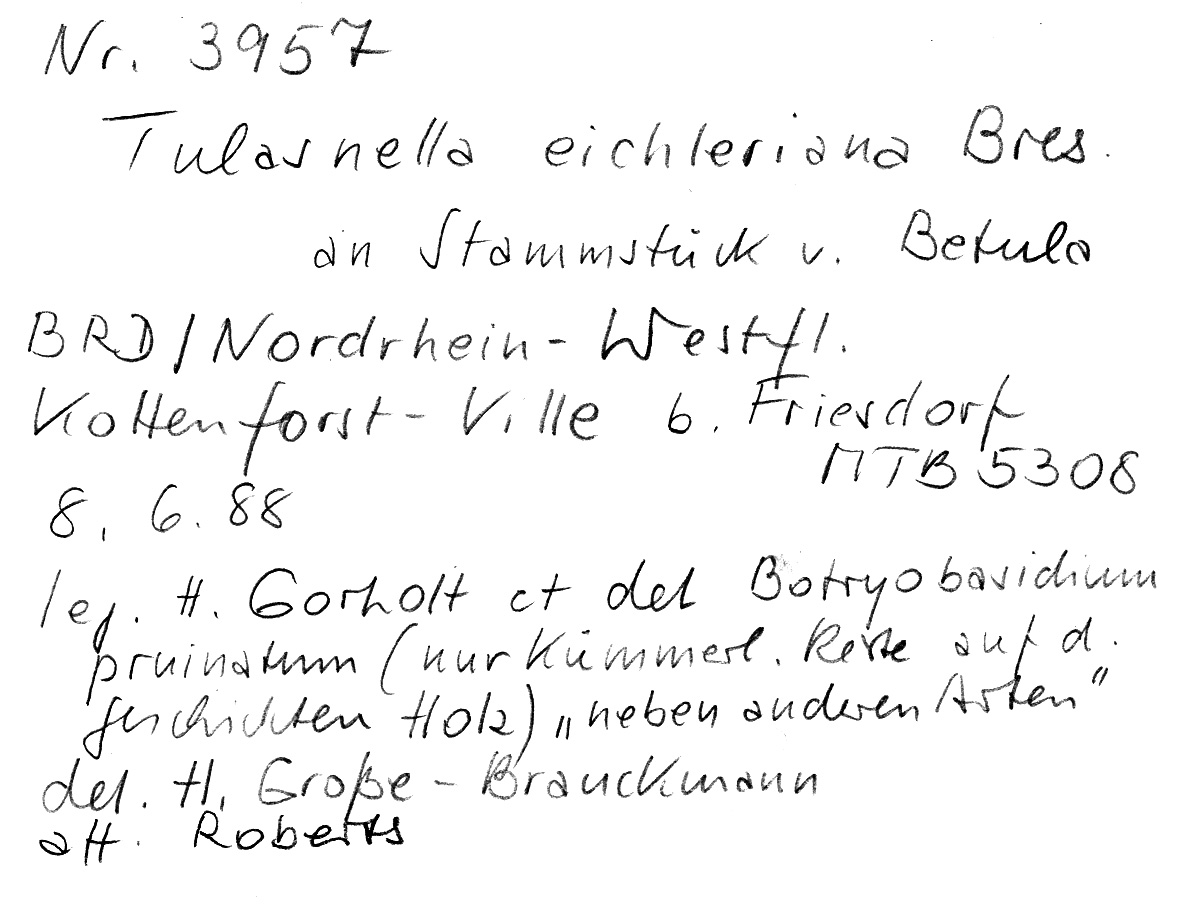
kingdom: Plantae
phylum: Tracheophyta
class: Magnoliopsida
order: Fagales
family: Betulaceae
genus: Betula
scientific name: Betula
